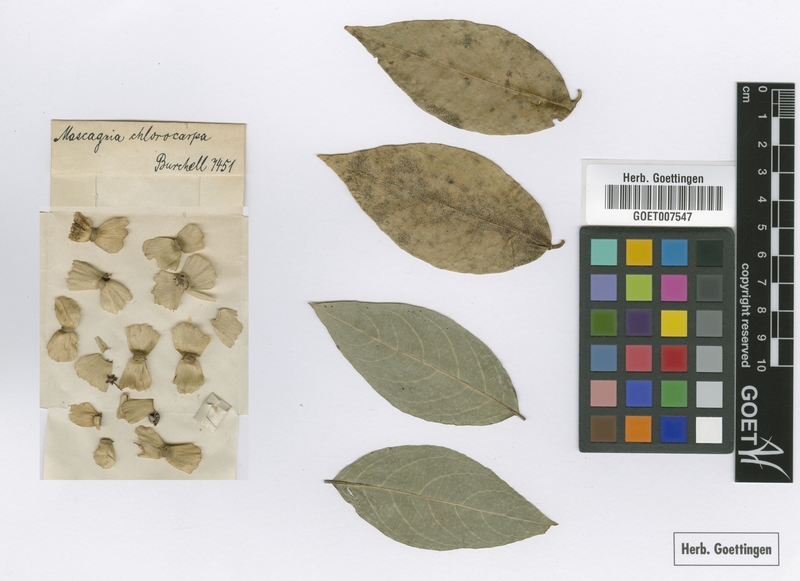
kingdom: Plantae
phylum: Tracheophyta
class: Magnoliopsida
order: Malpighiales
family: Malpighiaceae
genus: Carolus
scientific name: Carolus chlorocarpus
